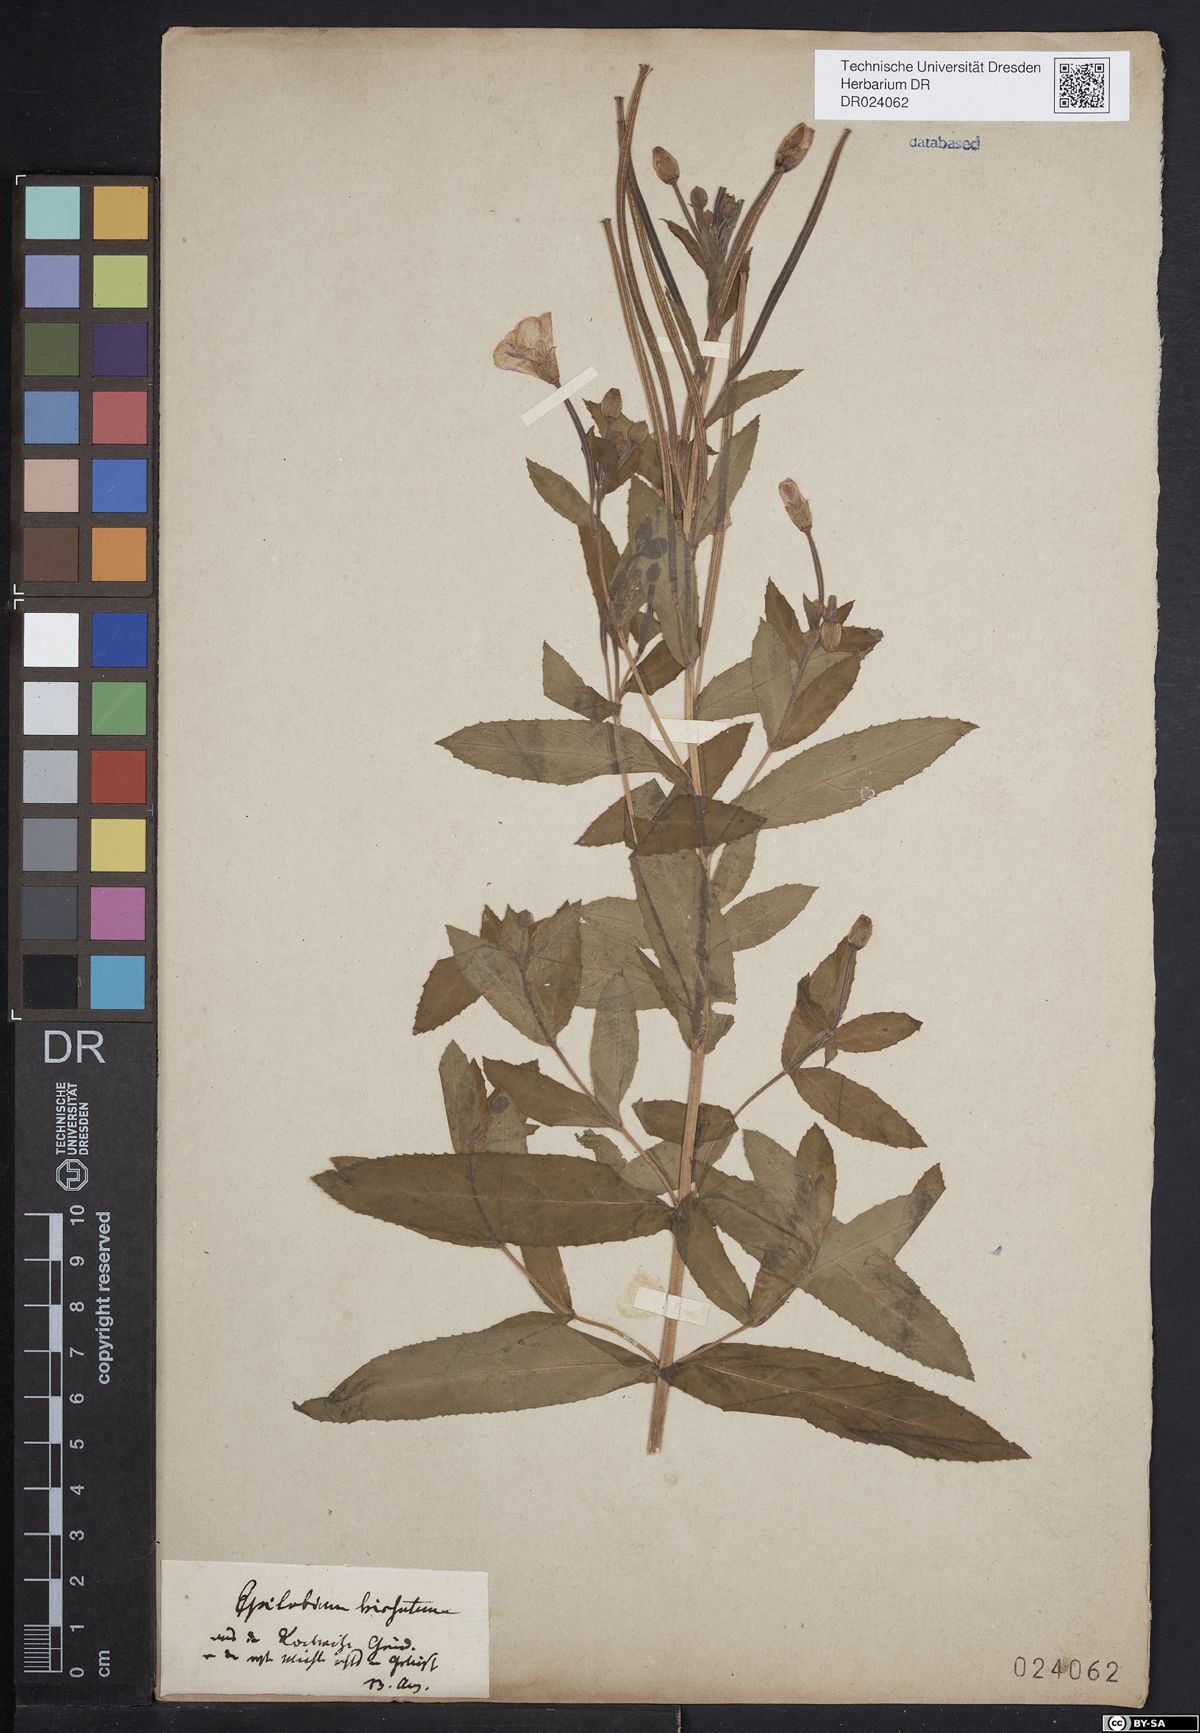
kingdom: Plantae
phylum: Tracheophyta
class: Magnoliopsida
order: Myrtales
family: Onagraceae
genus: Epilobium
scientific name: Epilobium hirsutum
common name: Great willowherb
